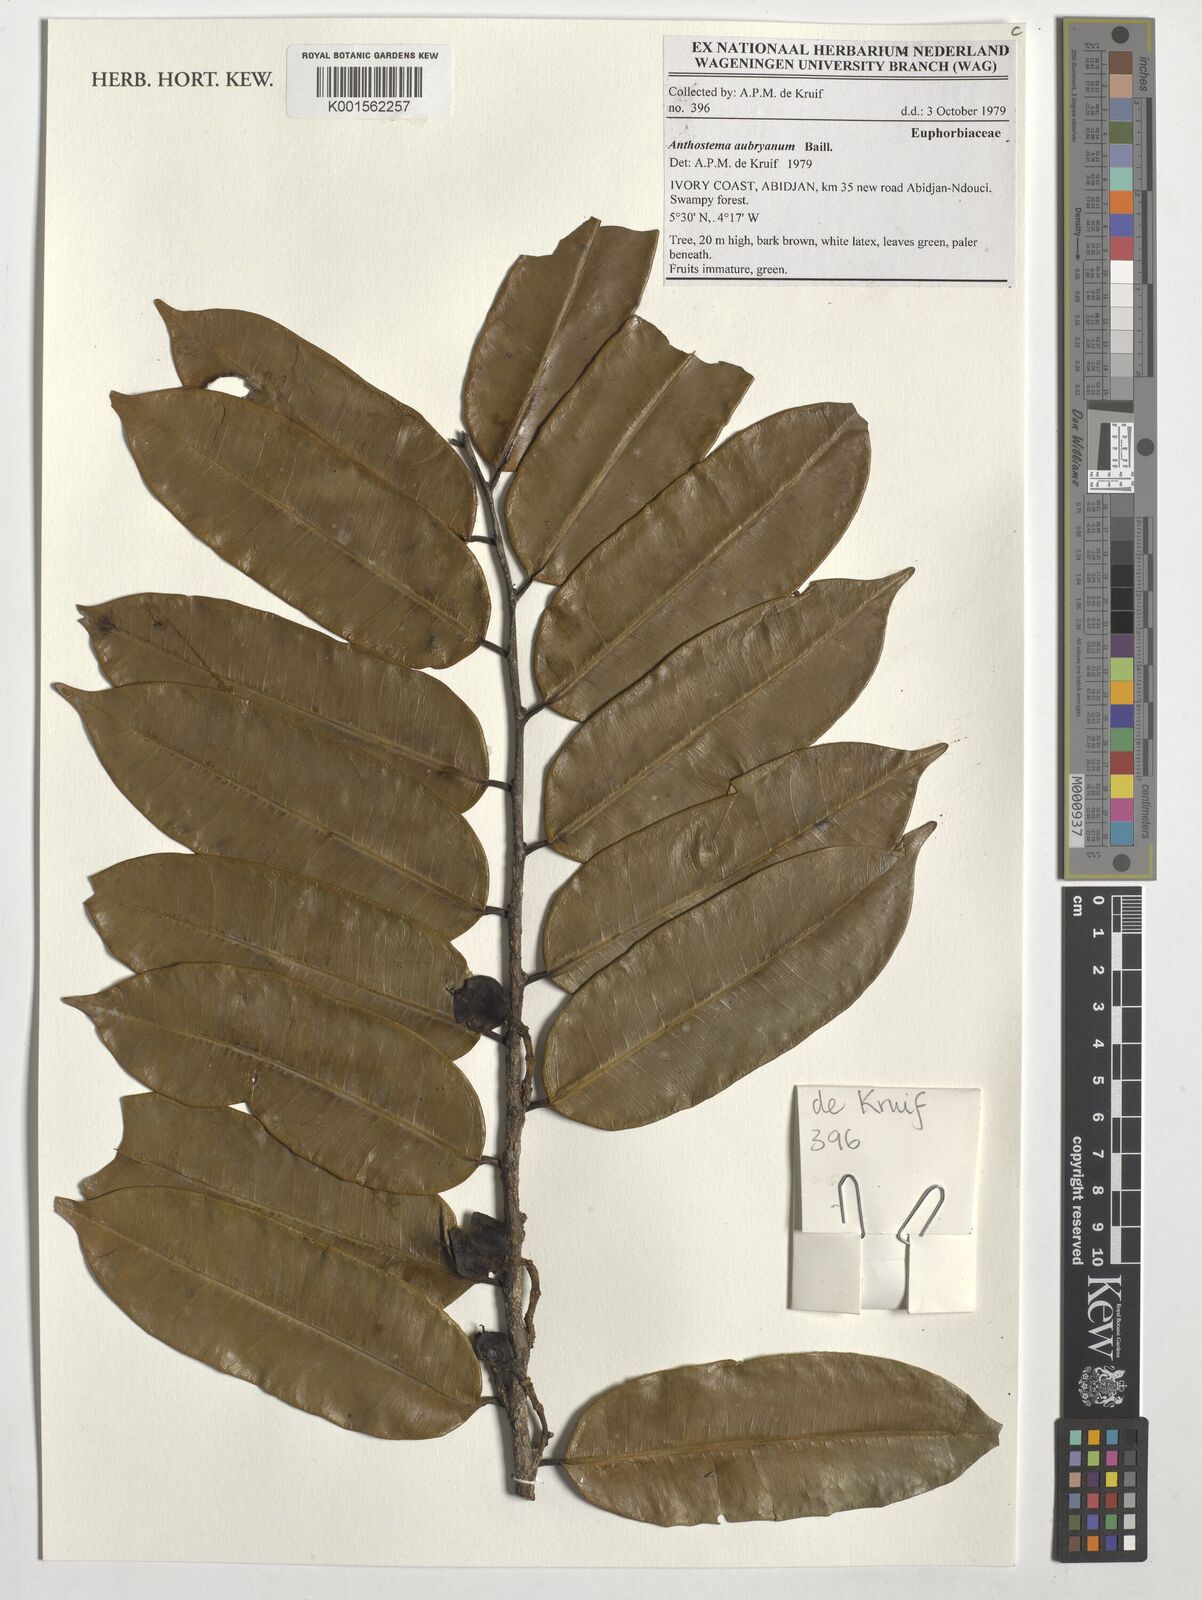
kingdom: Plantae
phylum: Tracheophyta
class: Magnoliopsida
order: Malpighiales
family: Euphorbiaceae
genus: Anthostema
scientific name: Anthostema aubryanum
